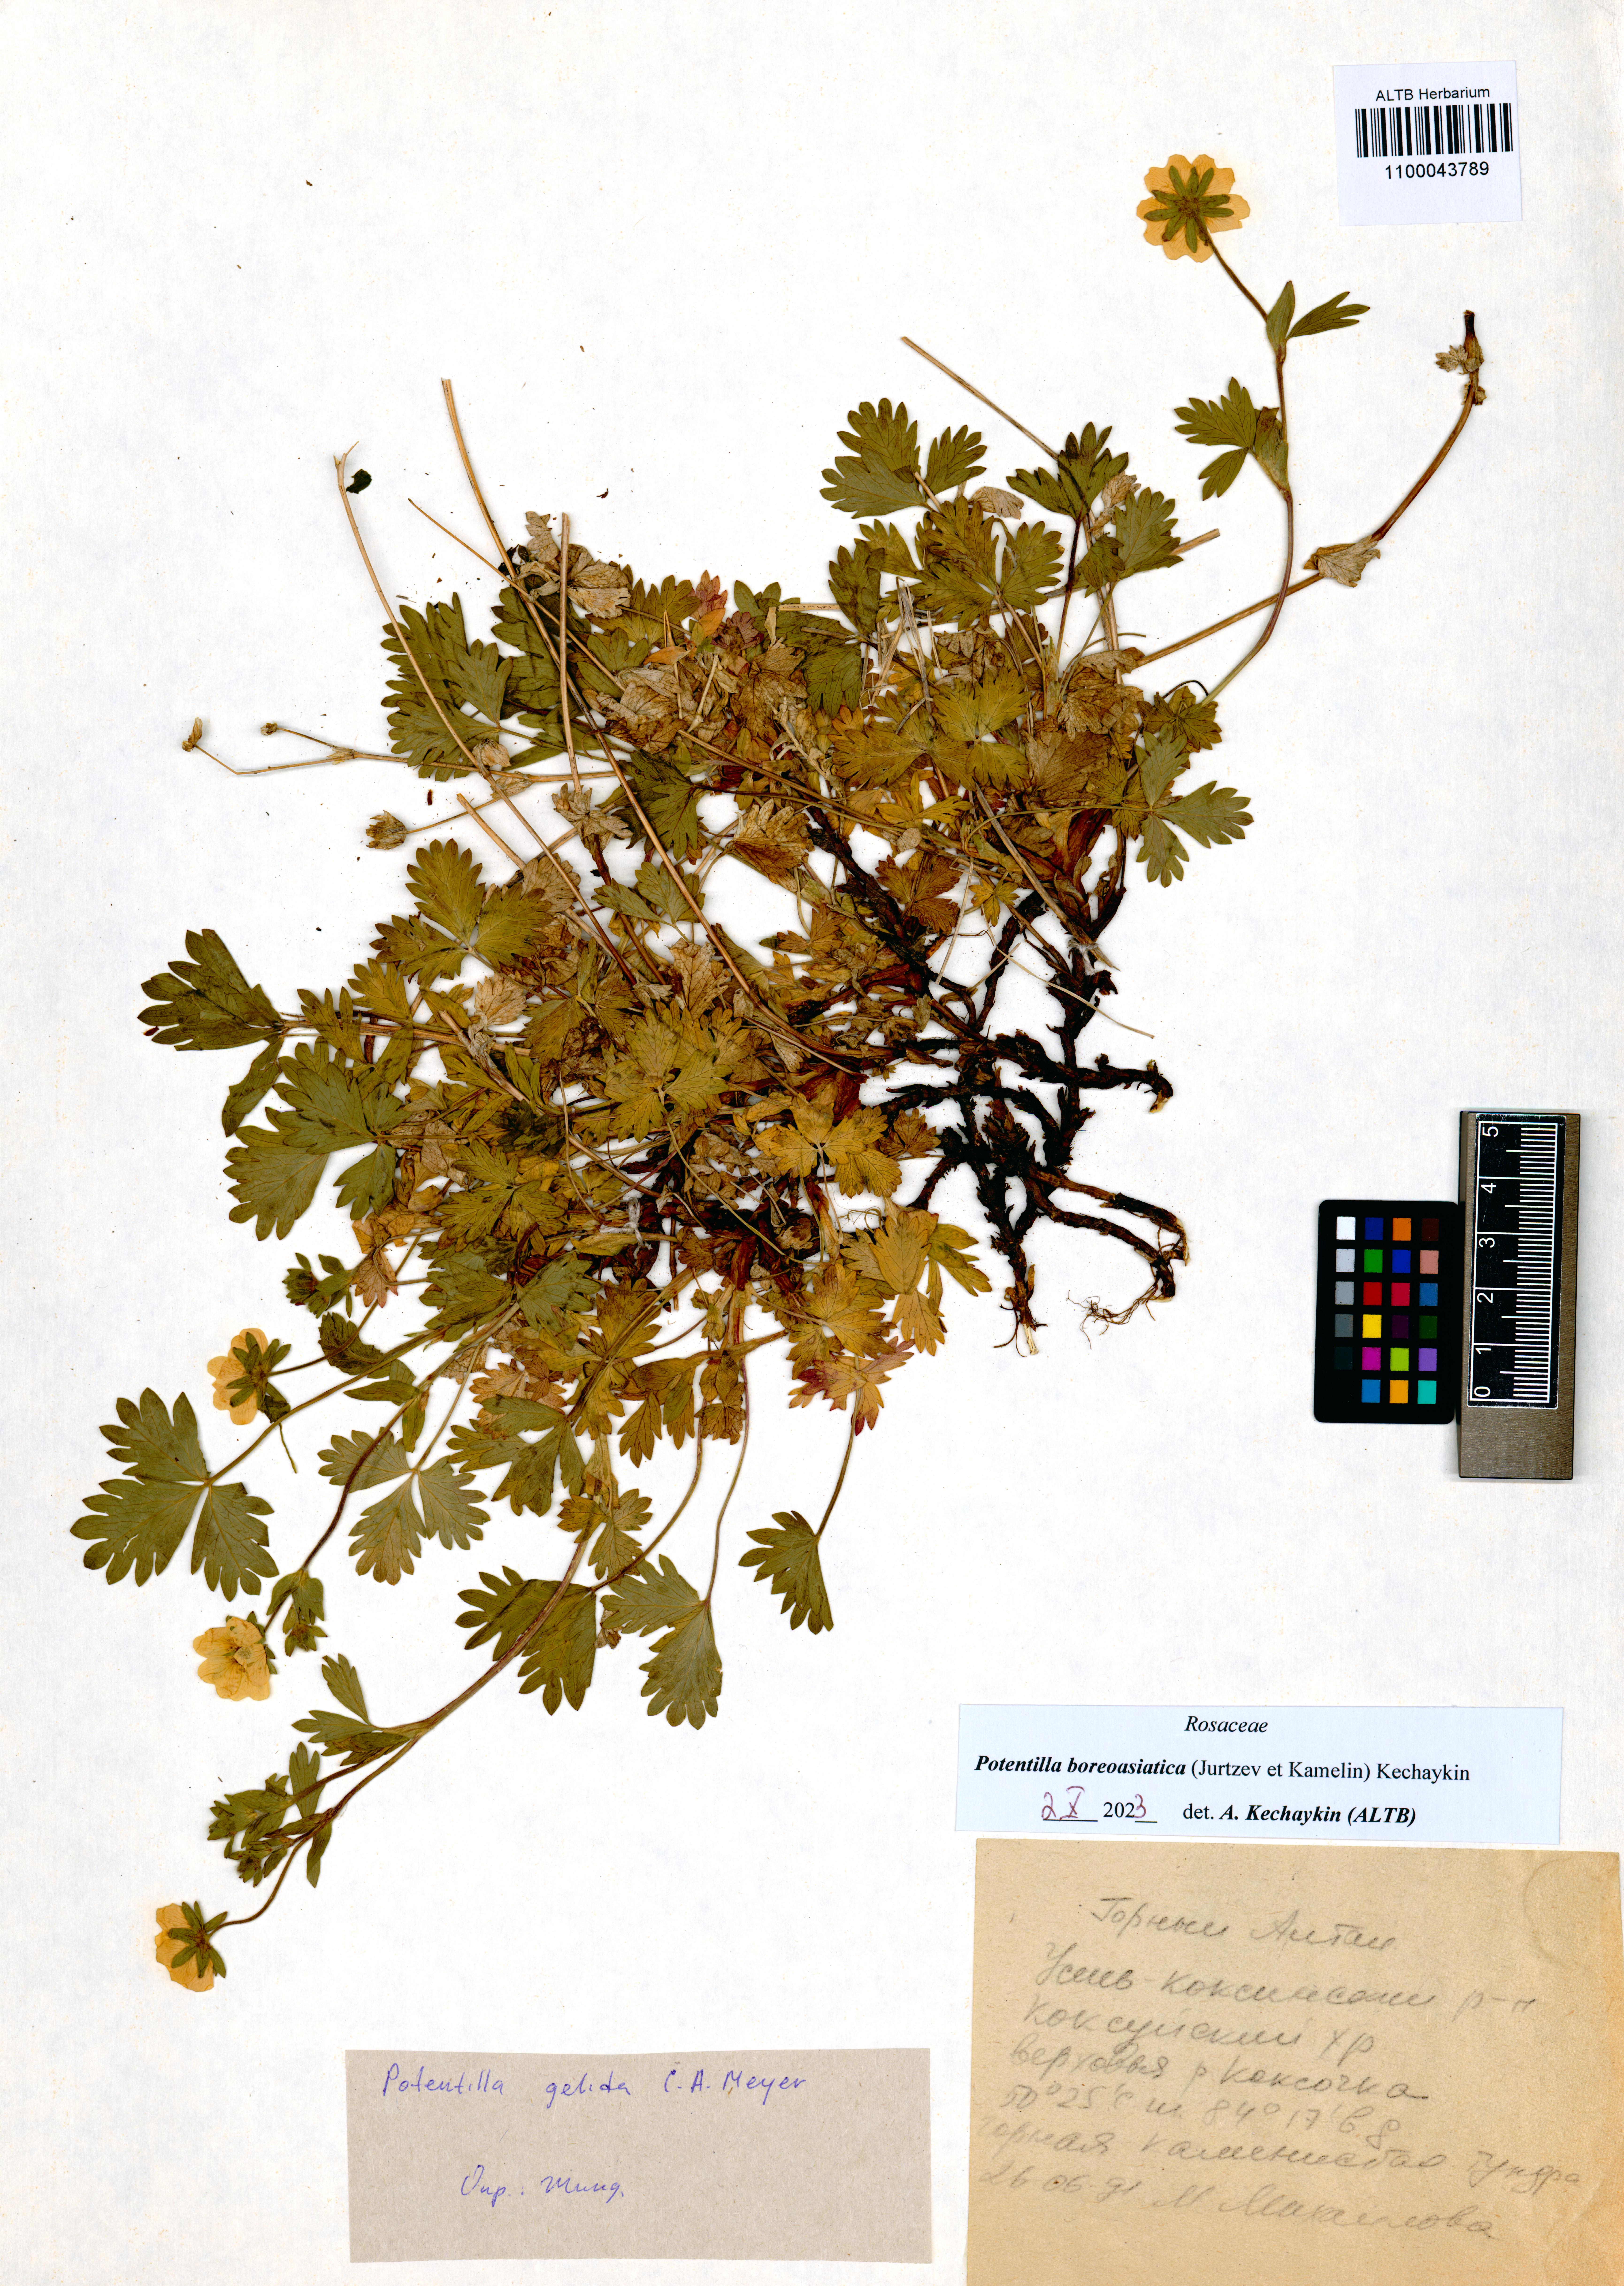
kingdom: Plantae
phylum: Tracheophyta
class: Magnoliopsida
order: Rosales
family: Rosaceae
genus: Potentilla
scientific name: Potentilla
